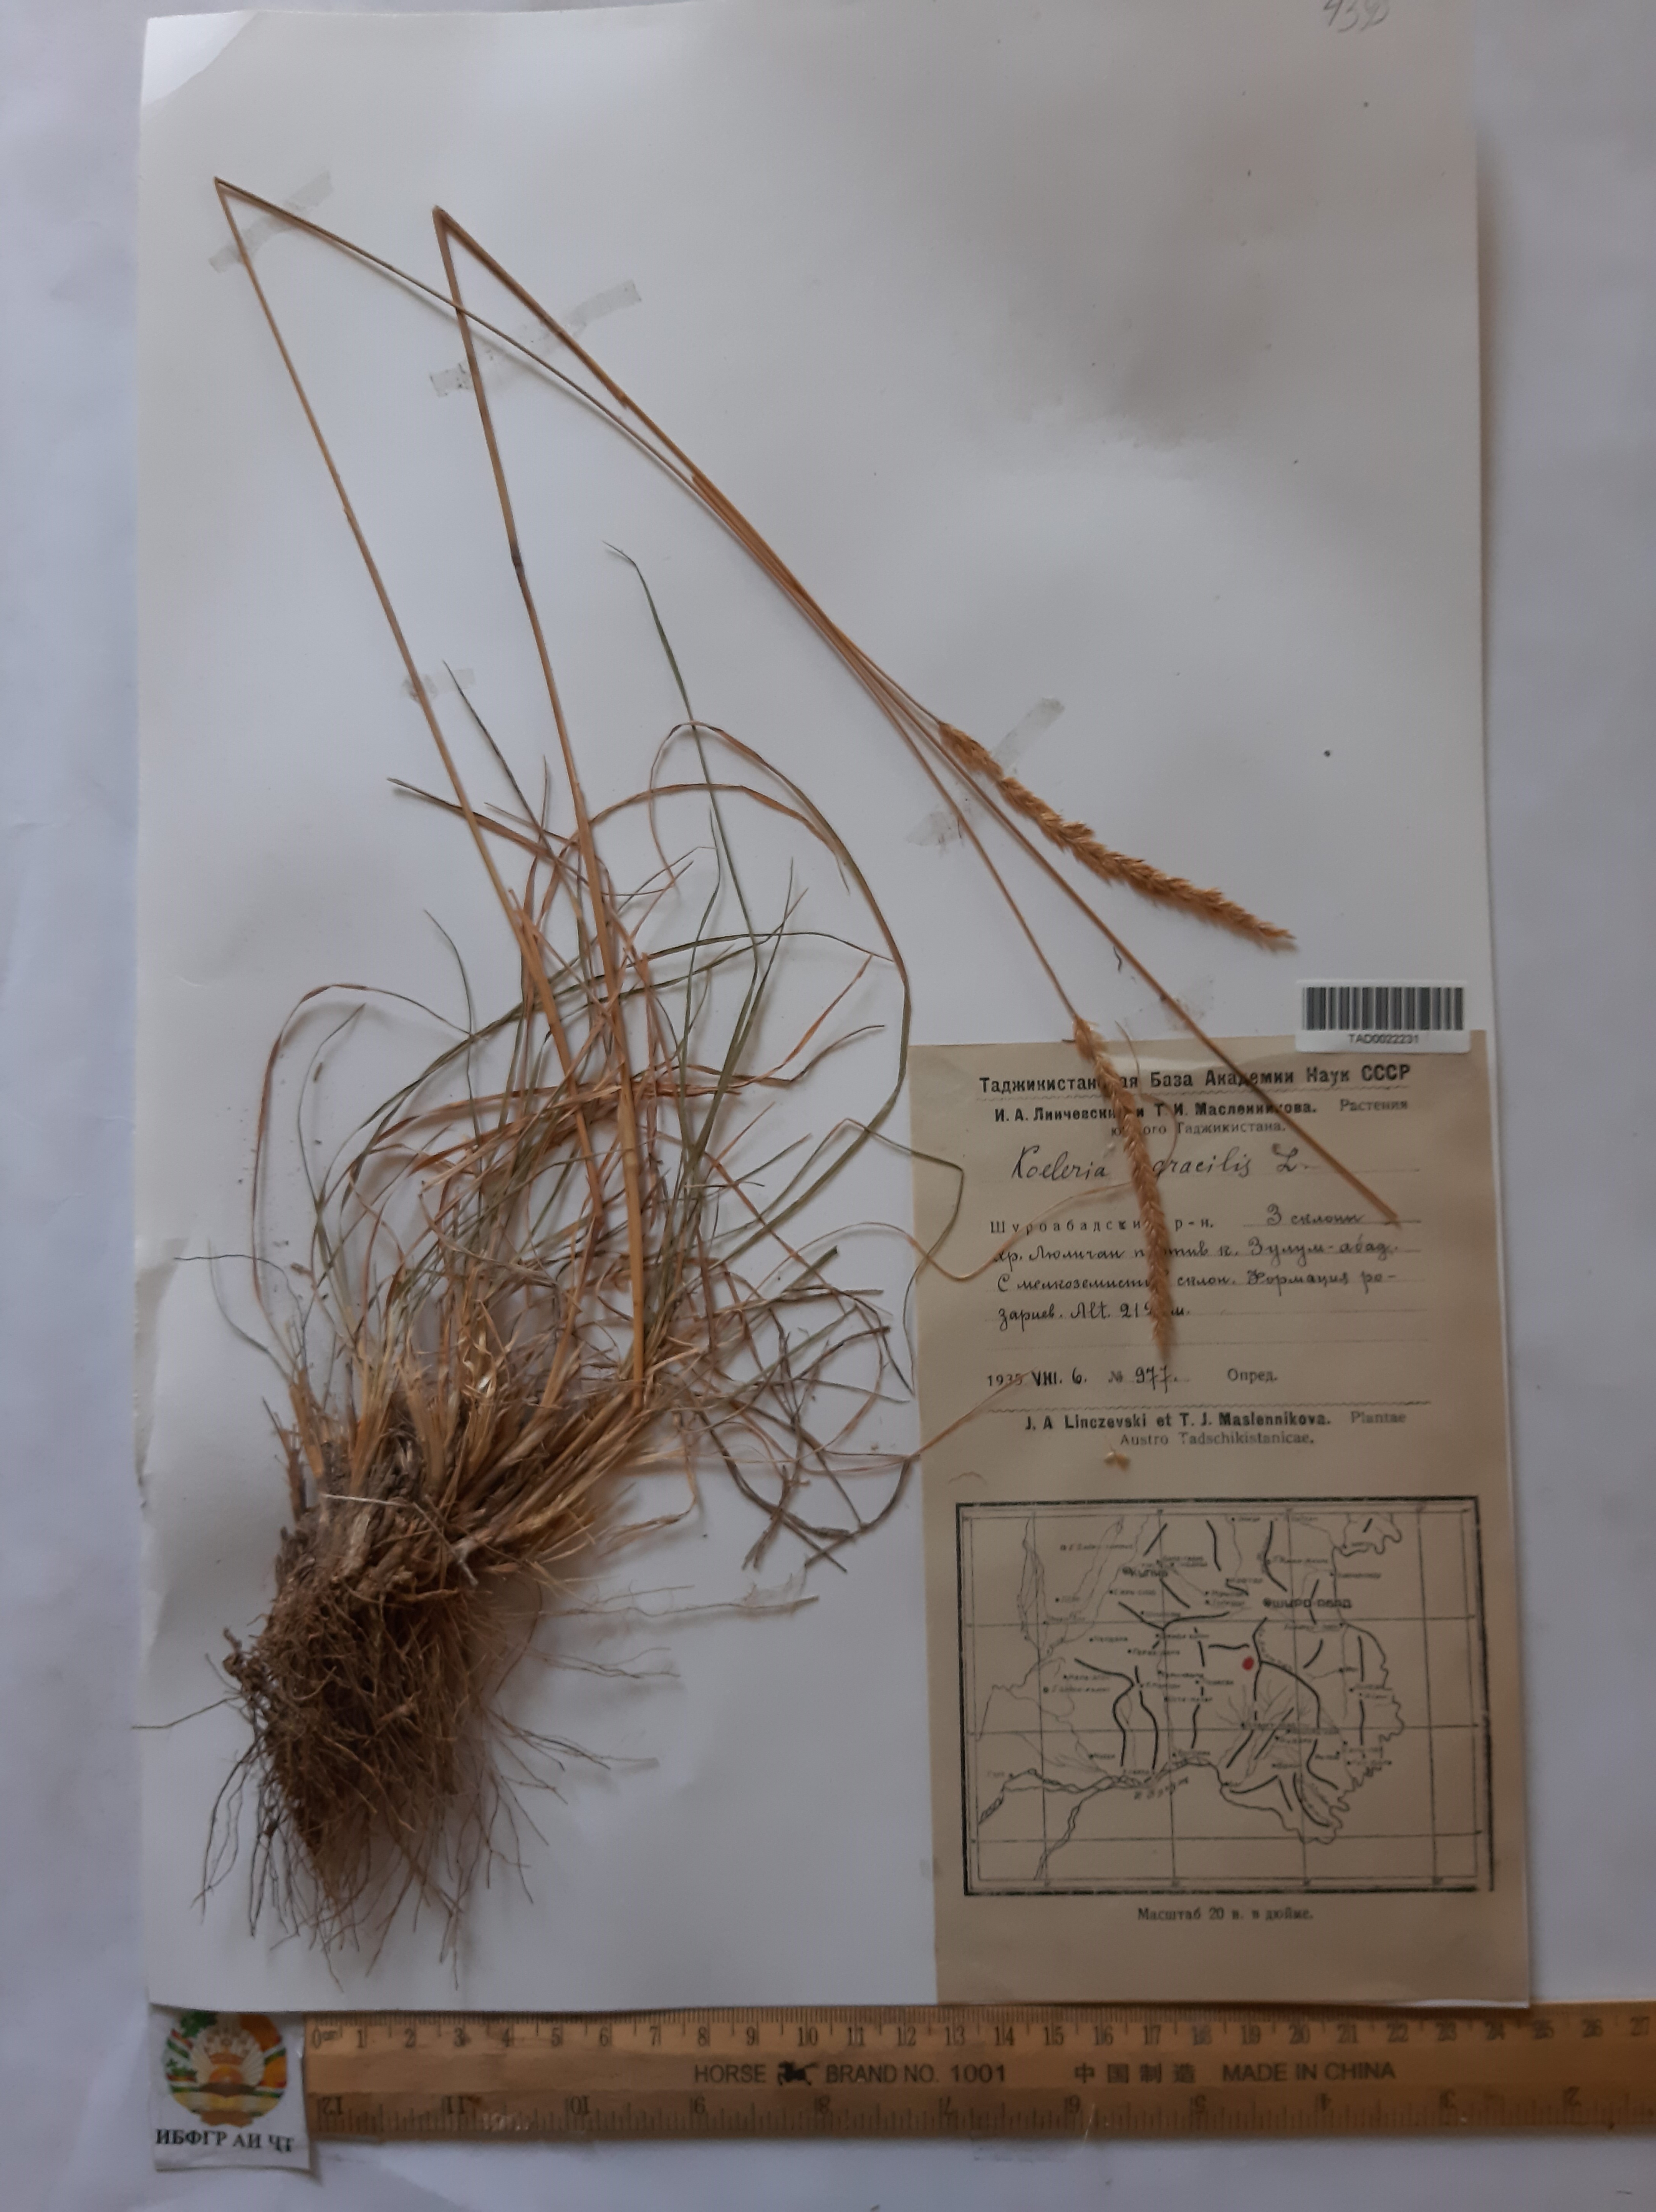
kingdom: Plantae
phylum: Tracheophyta
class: Liliopsida
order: Poales
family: Poaceae
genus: Koeleria
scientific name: Koeleria macrantha
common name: Crested hair-grass
